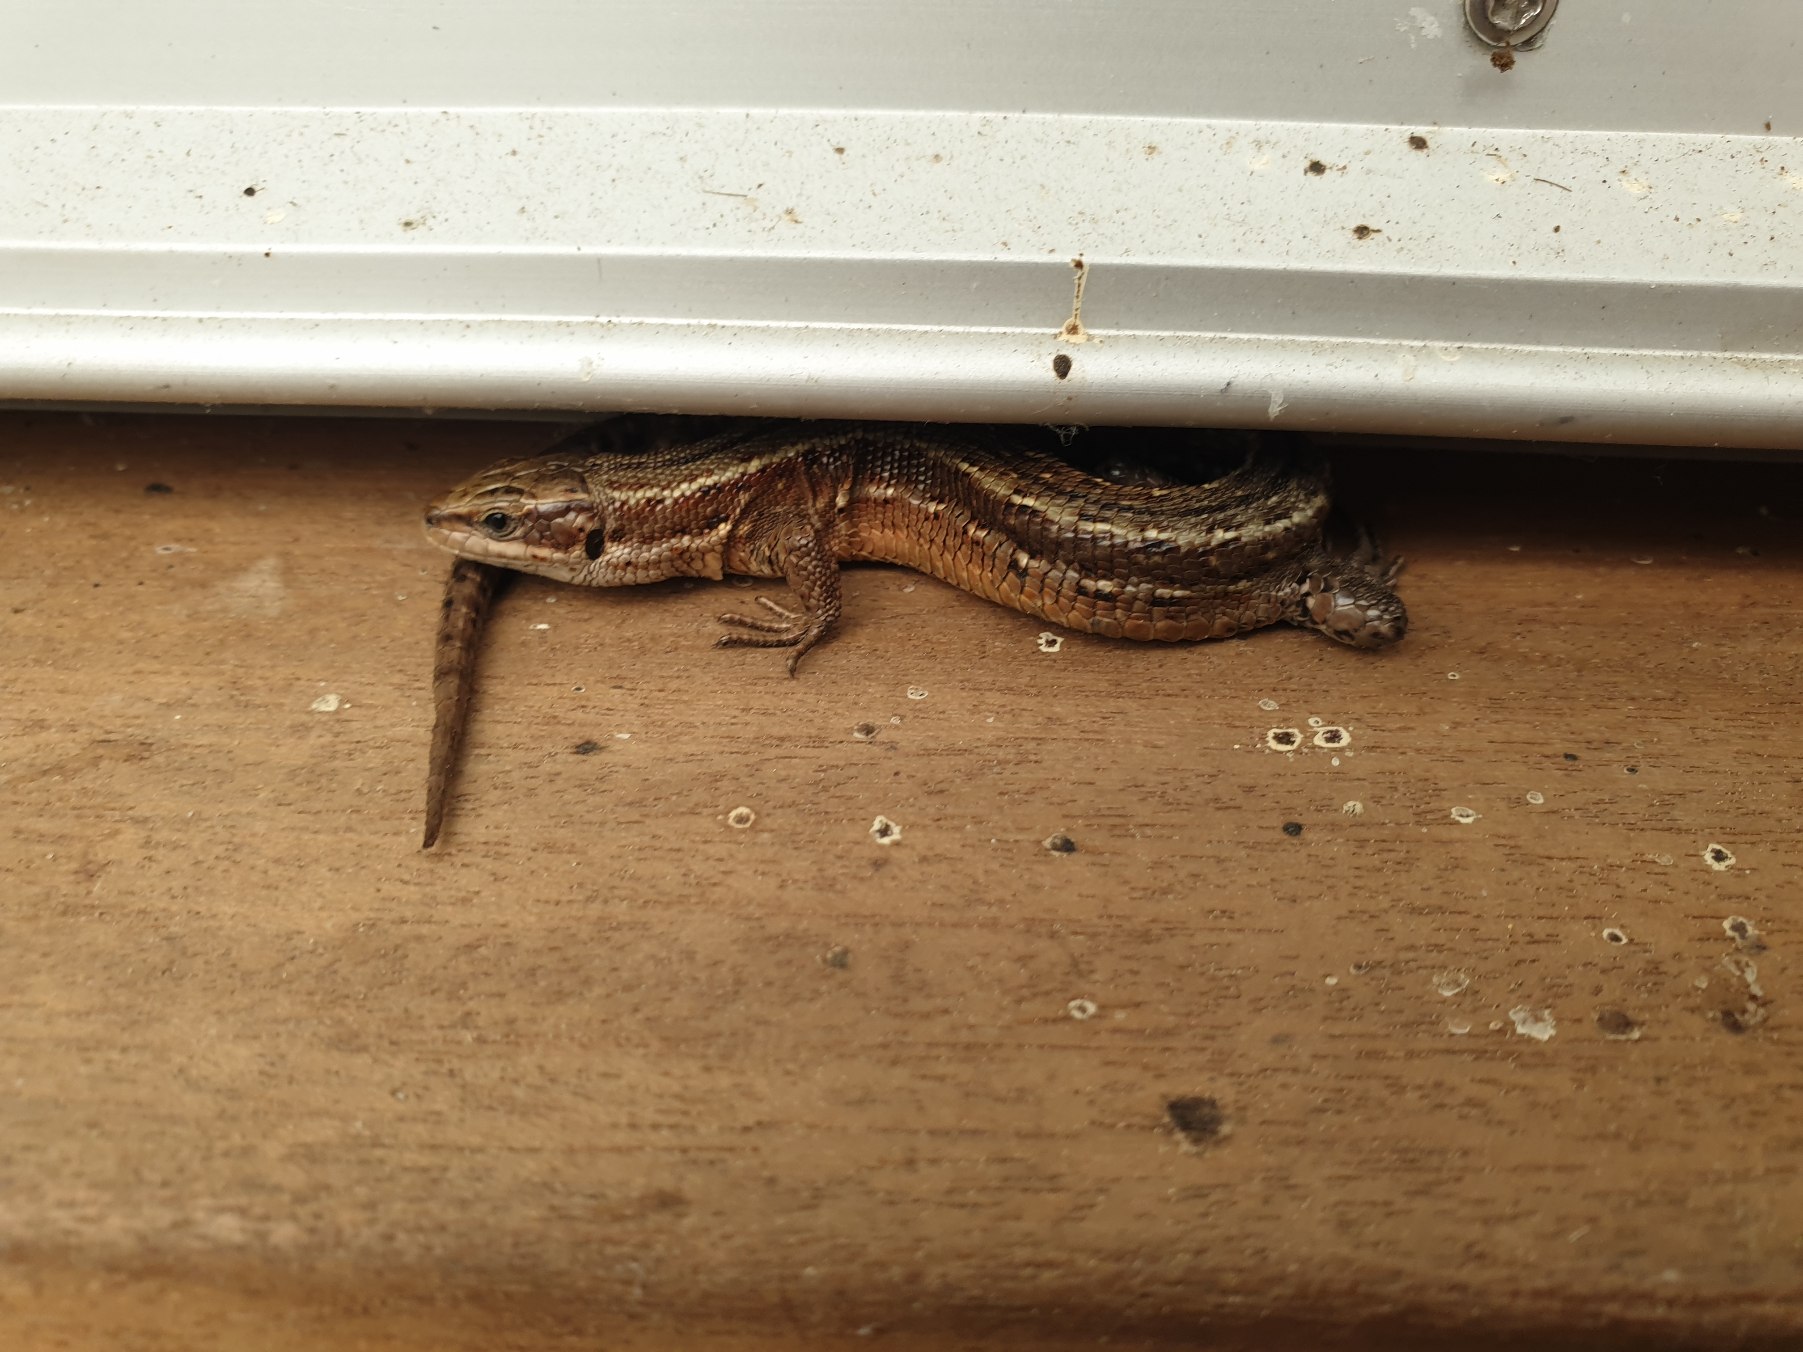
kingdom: Animalia
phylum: Chordata
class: Squamata
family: Lacertidae
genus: Zootoca
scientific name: Zootoca vivipara
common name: Skovfirben
